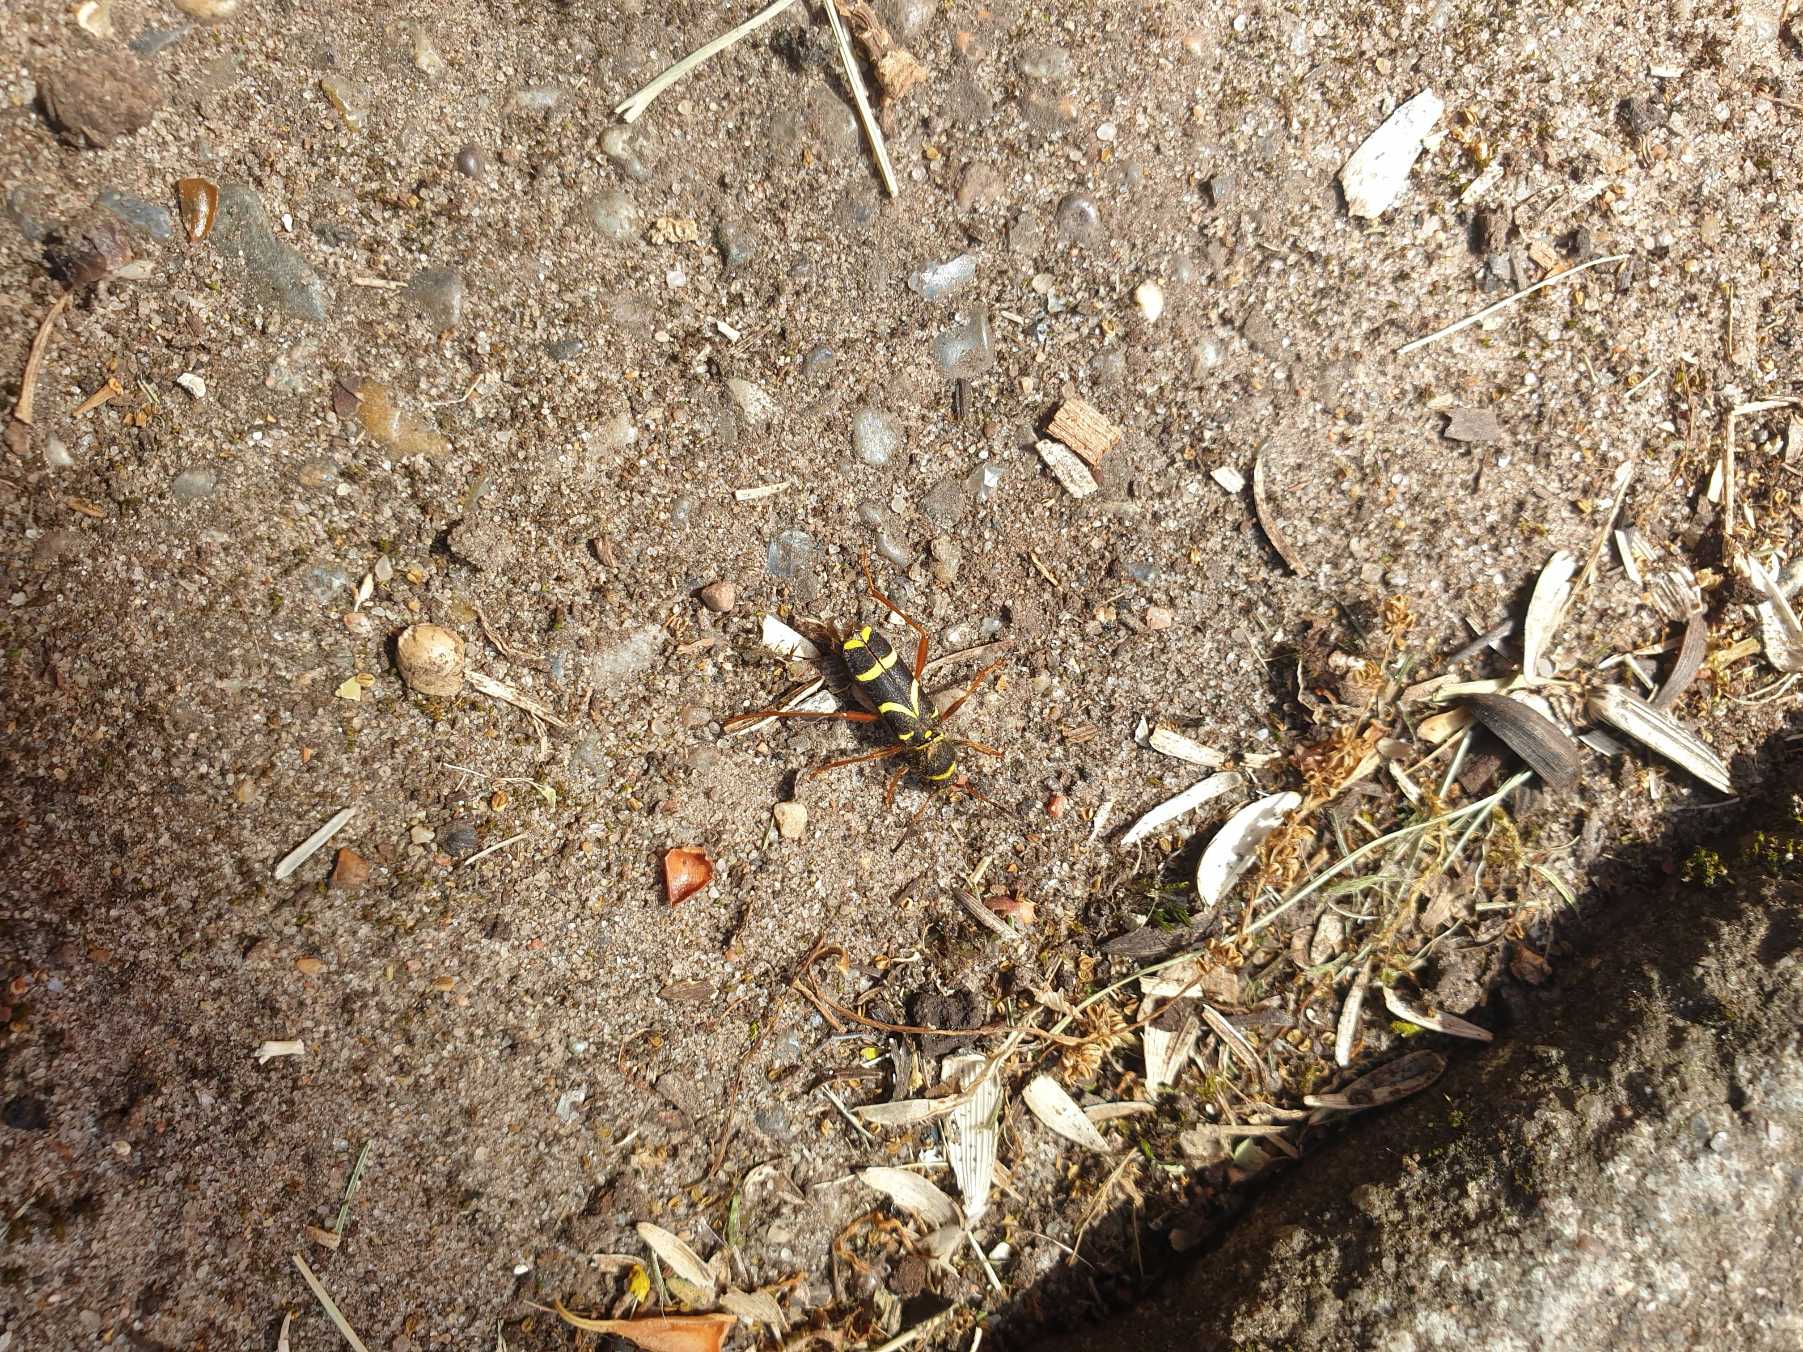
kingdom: Animalia
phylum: Arthropoda
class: Insecta
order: Coleoptera
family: Cerambycidae
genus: Clytus
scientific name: Clytus arietis
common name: Lille hvepsebuk
